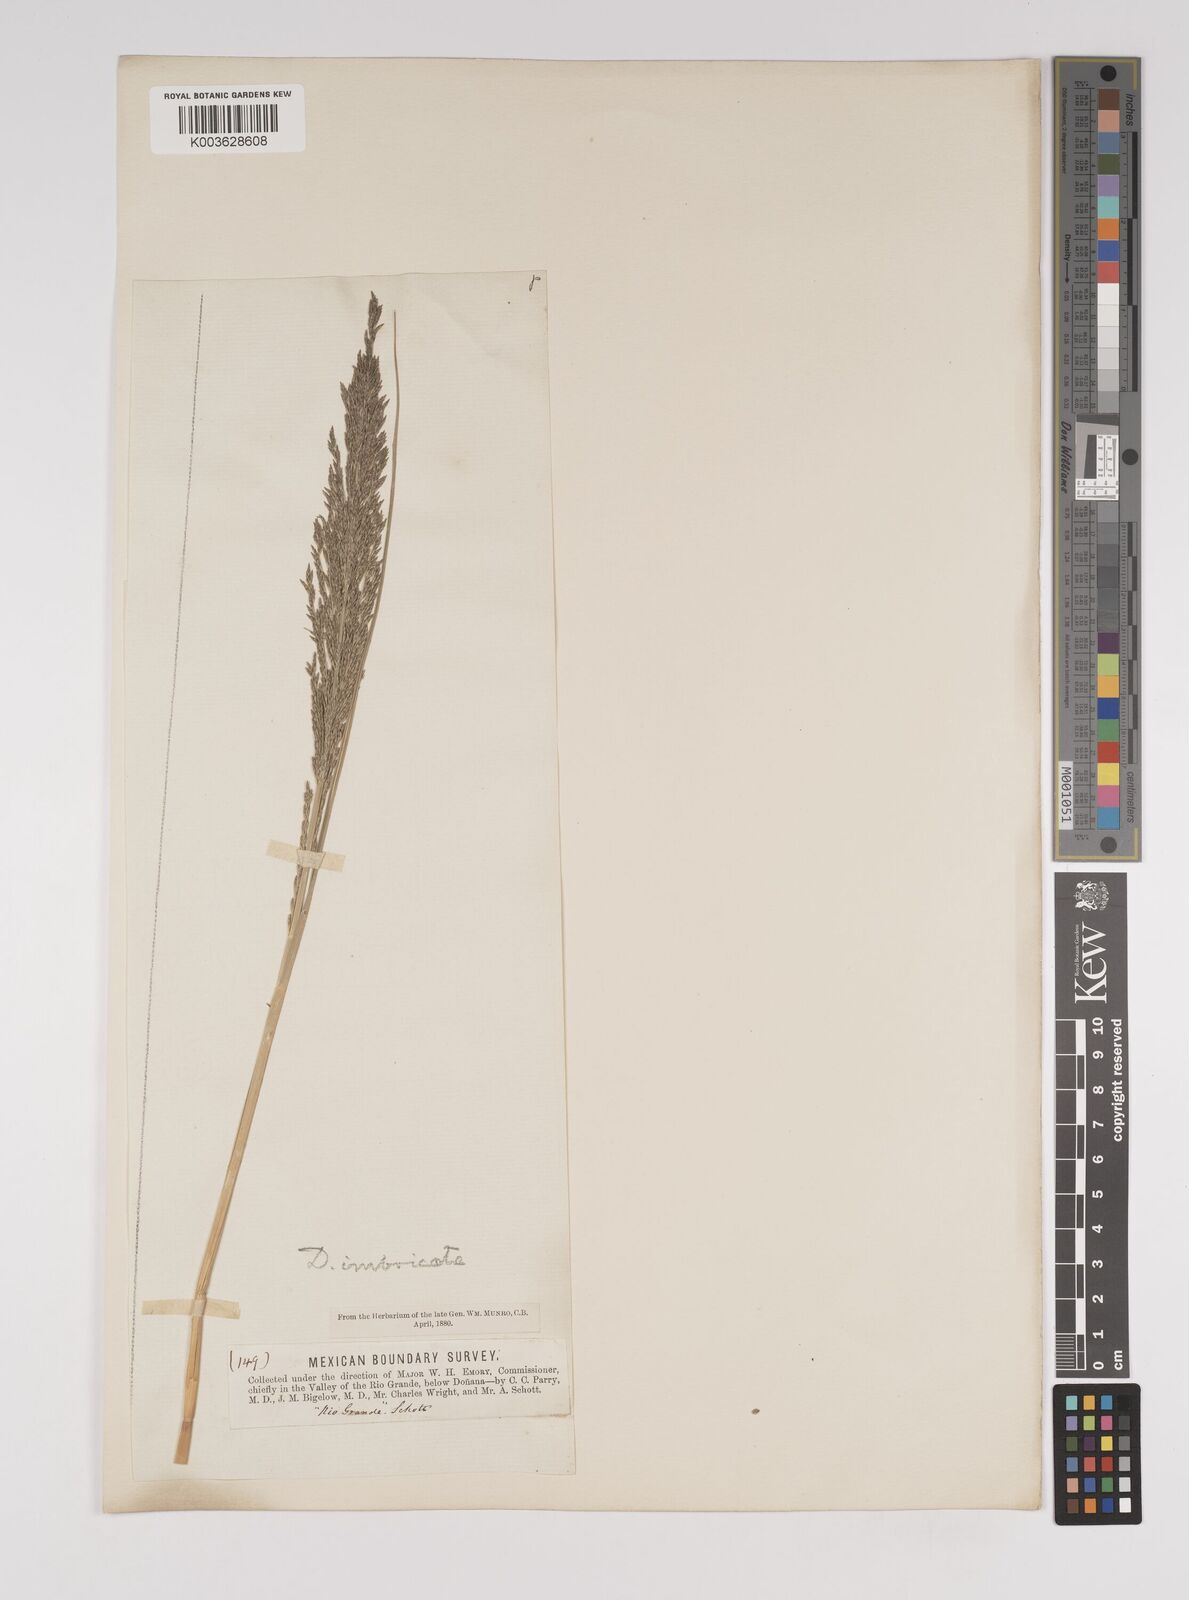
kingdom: Plantae
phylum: Tracheophyta
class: Liliopsida
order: Poales
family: Poaceae
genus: Diplachne
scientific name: Diplachne fusca
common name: Brown beetle grass
